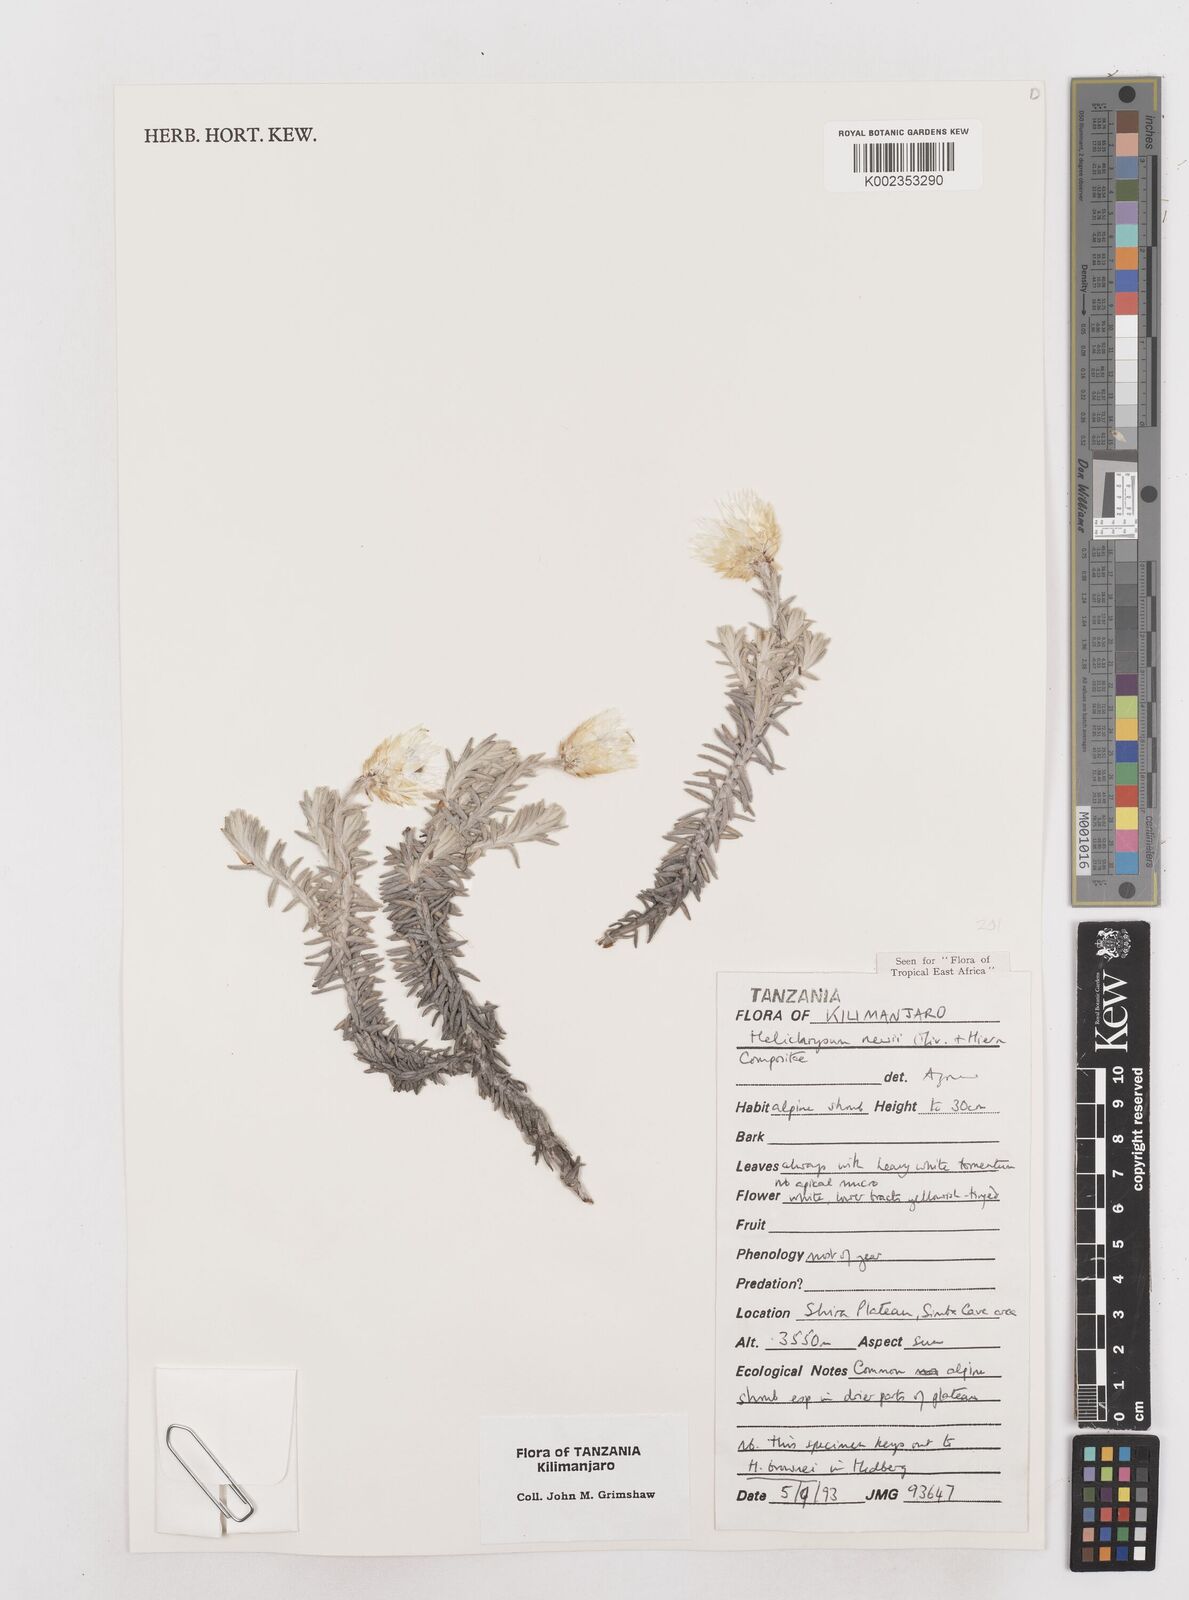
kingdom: Plantae
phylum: Tracheophyta
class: Magnoliopsida
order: Asterales
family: Asteraceae
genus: Helichrysum
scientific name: Helichrysum newii
